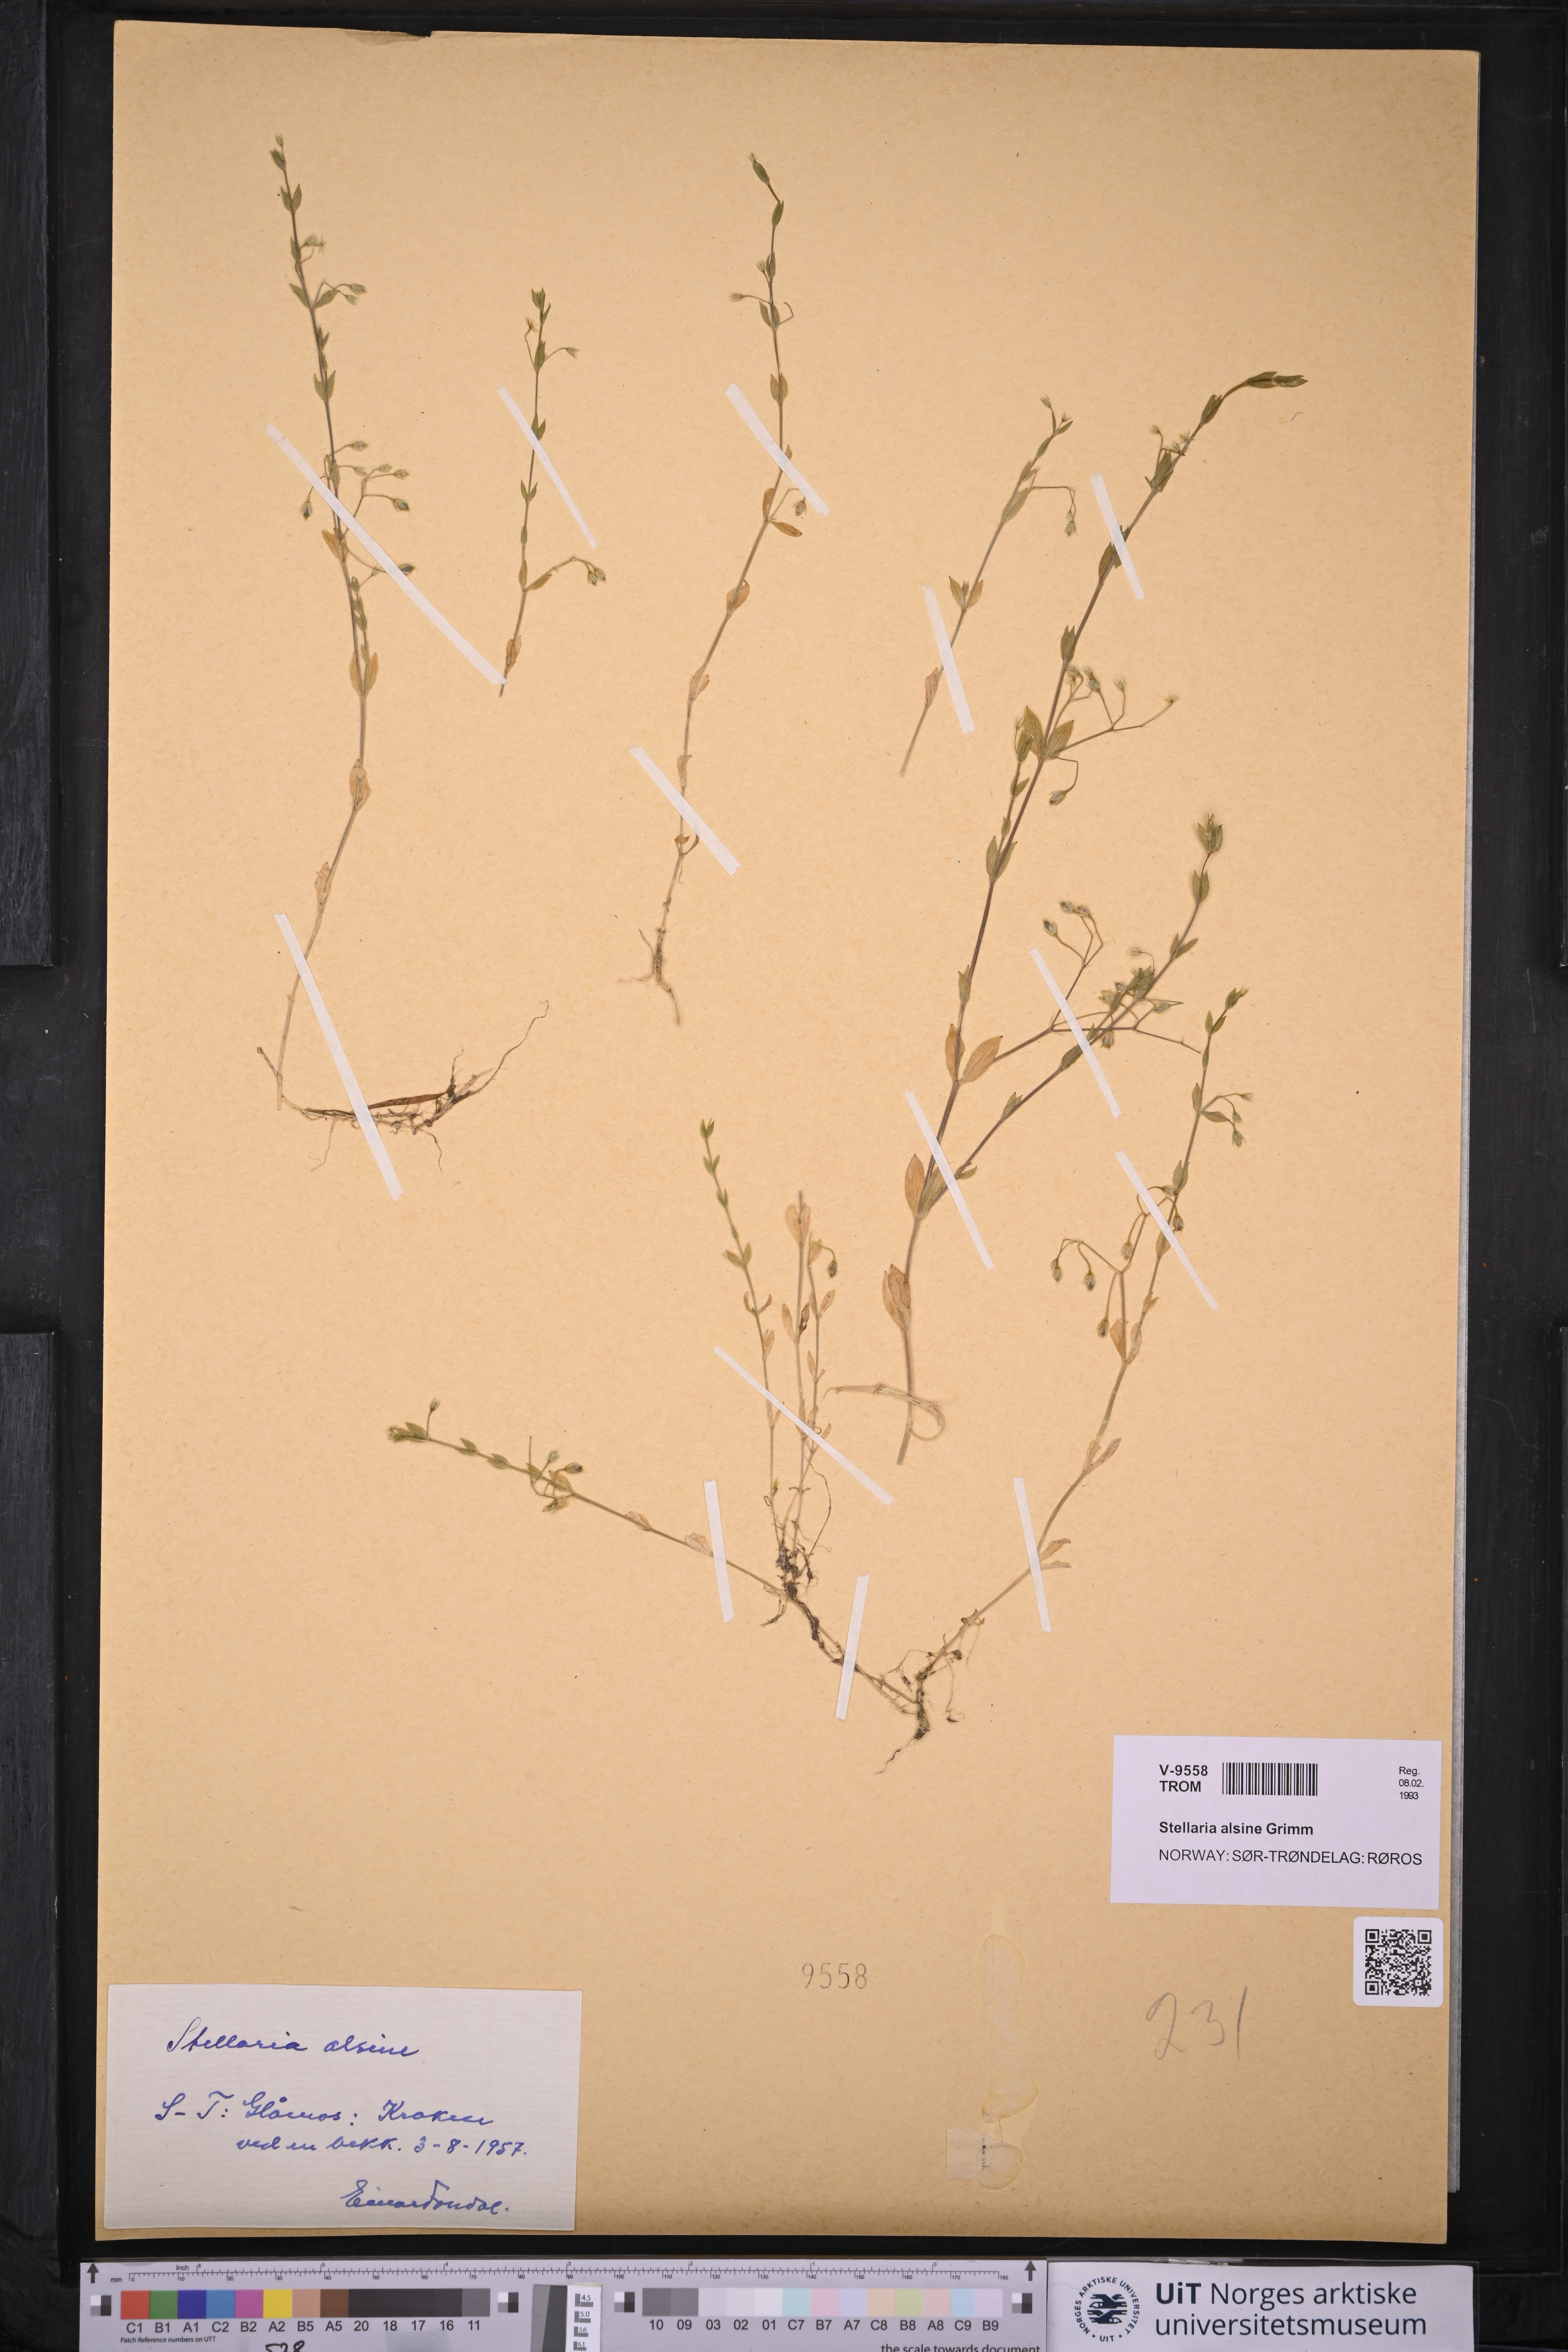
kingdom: Plantae
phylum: Tracheophyta
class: Magnoliopsida
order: Caryophyllales
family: Caryophyllaceae
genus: Stellaria
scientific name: Stellaria alsine
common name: Bog stitchwort
